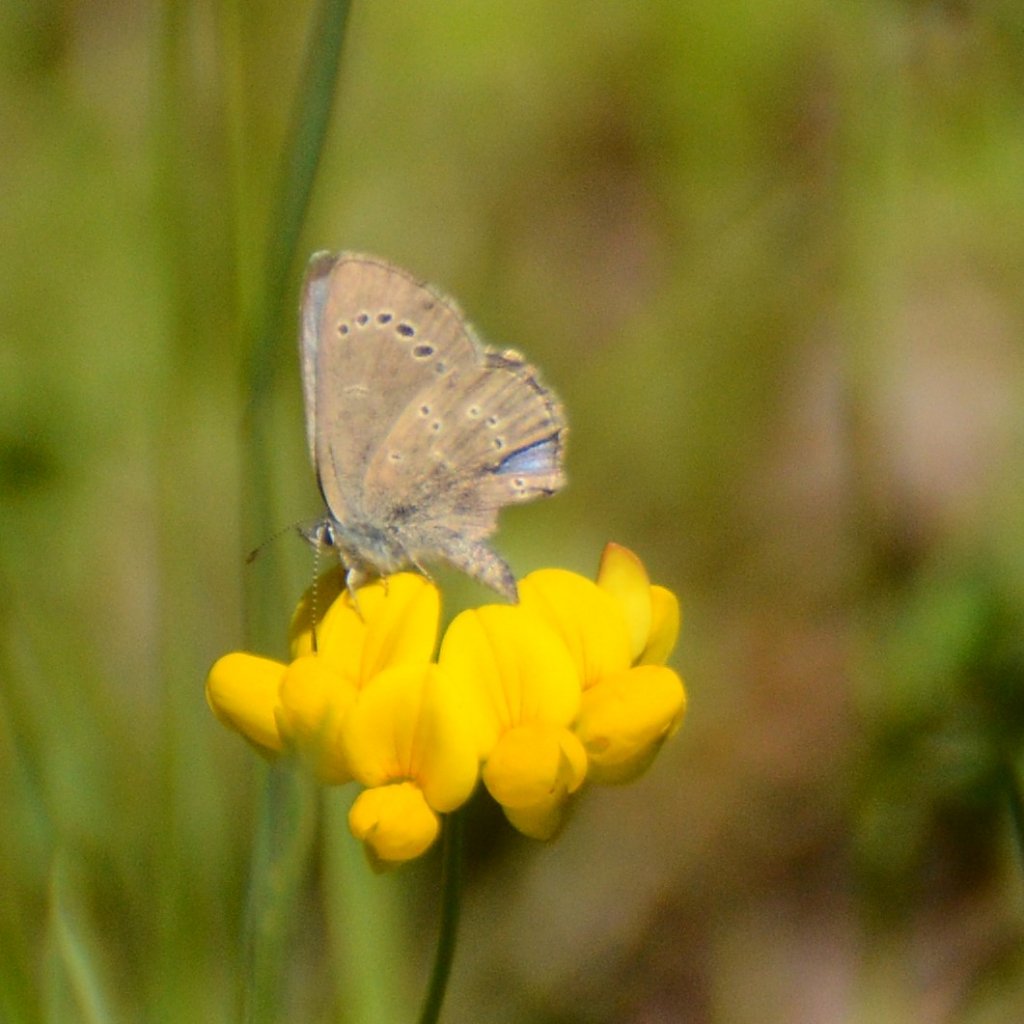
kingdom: Animalia
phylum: Arthropoda
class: Insecta
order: Lepidoptera
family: Lycaenidae
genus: Glaucopsyche
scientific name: Glaucopsyche lygdamus
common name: Silvery Blue
